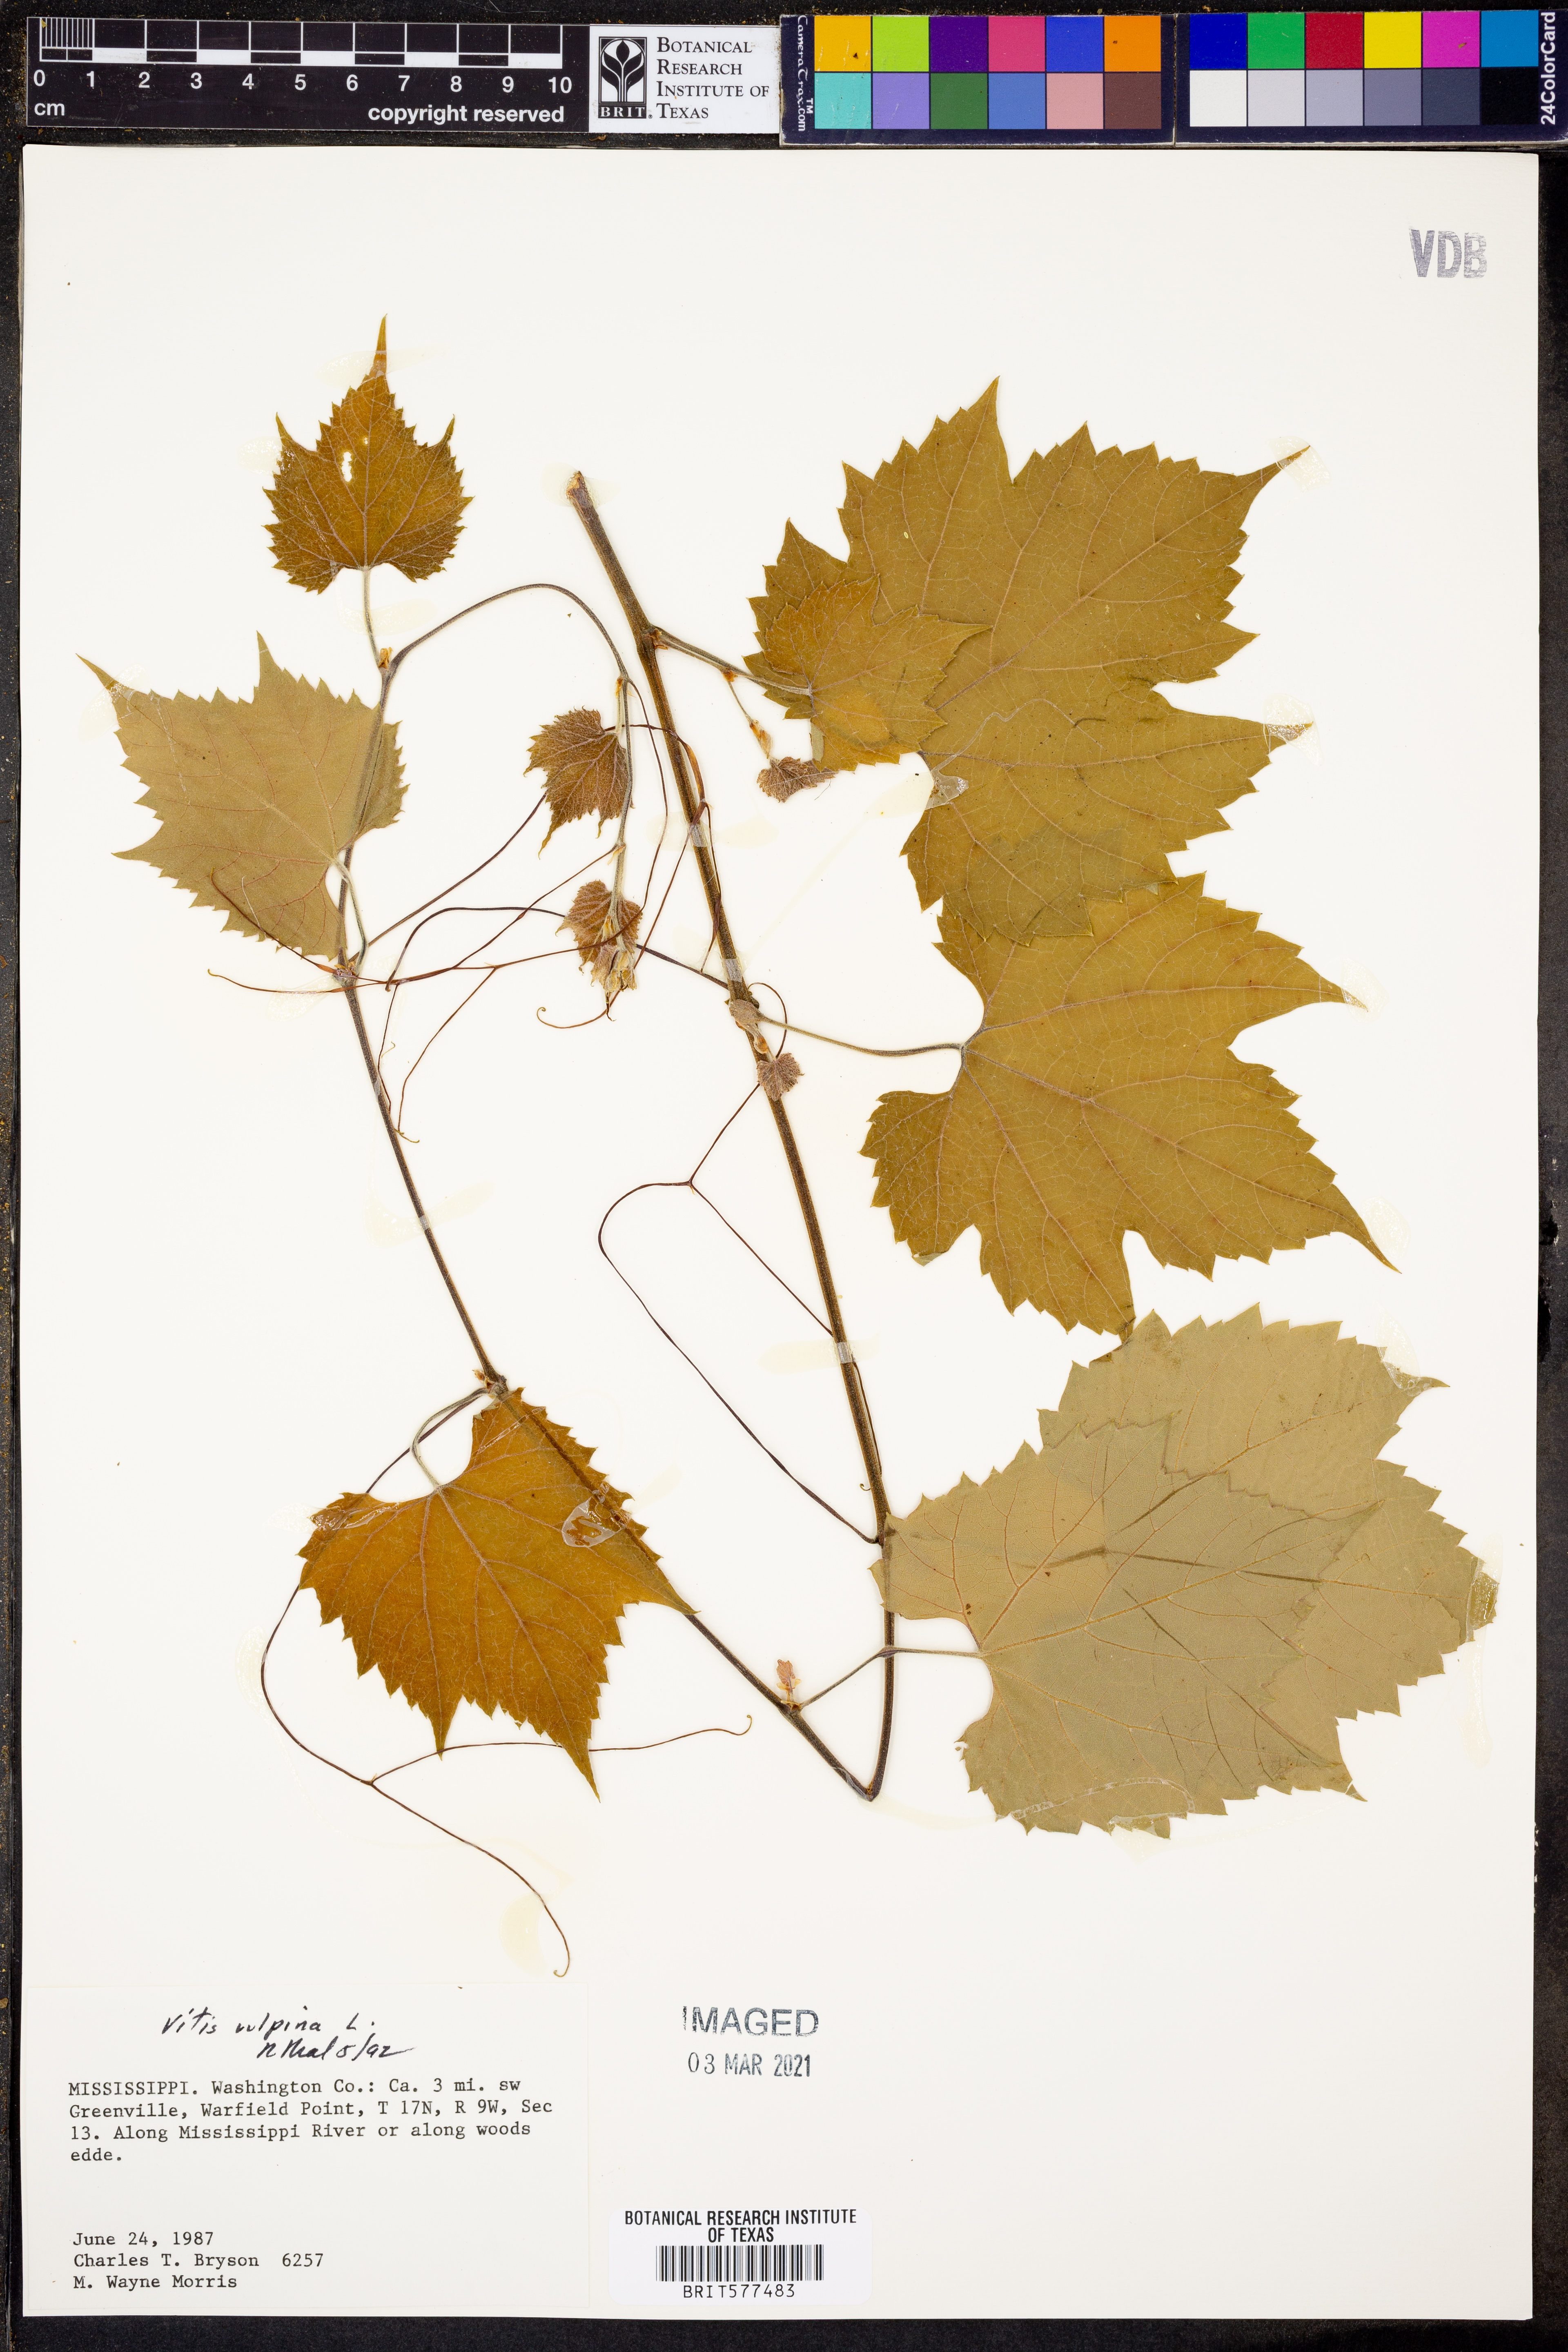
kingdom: Plantae
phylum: Tracheophyta
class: Magnoliopsida
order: Vitales
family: Vitaceae
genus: Vitis
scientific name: Vitis vulpina
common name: Frost grape
